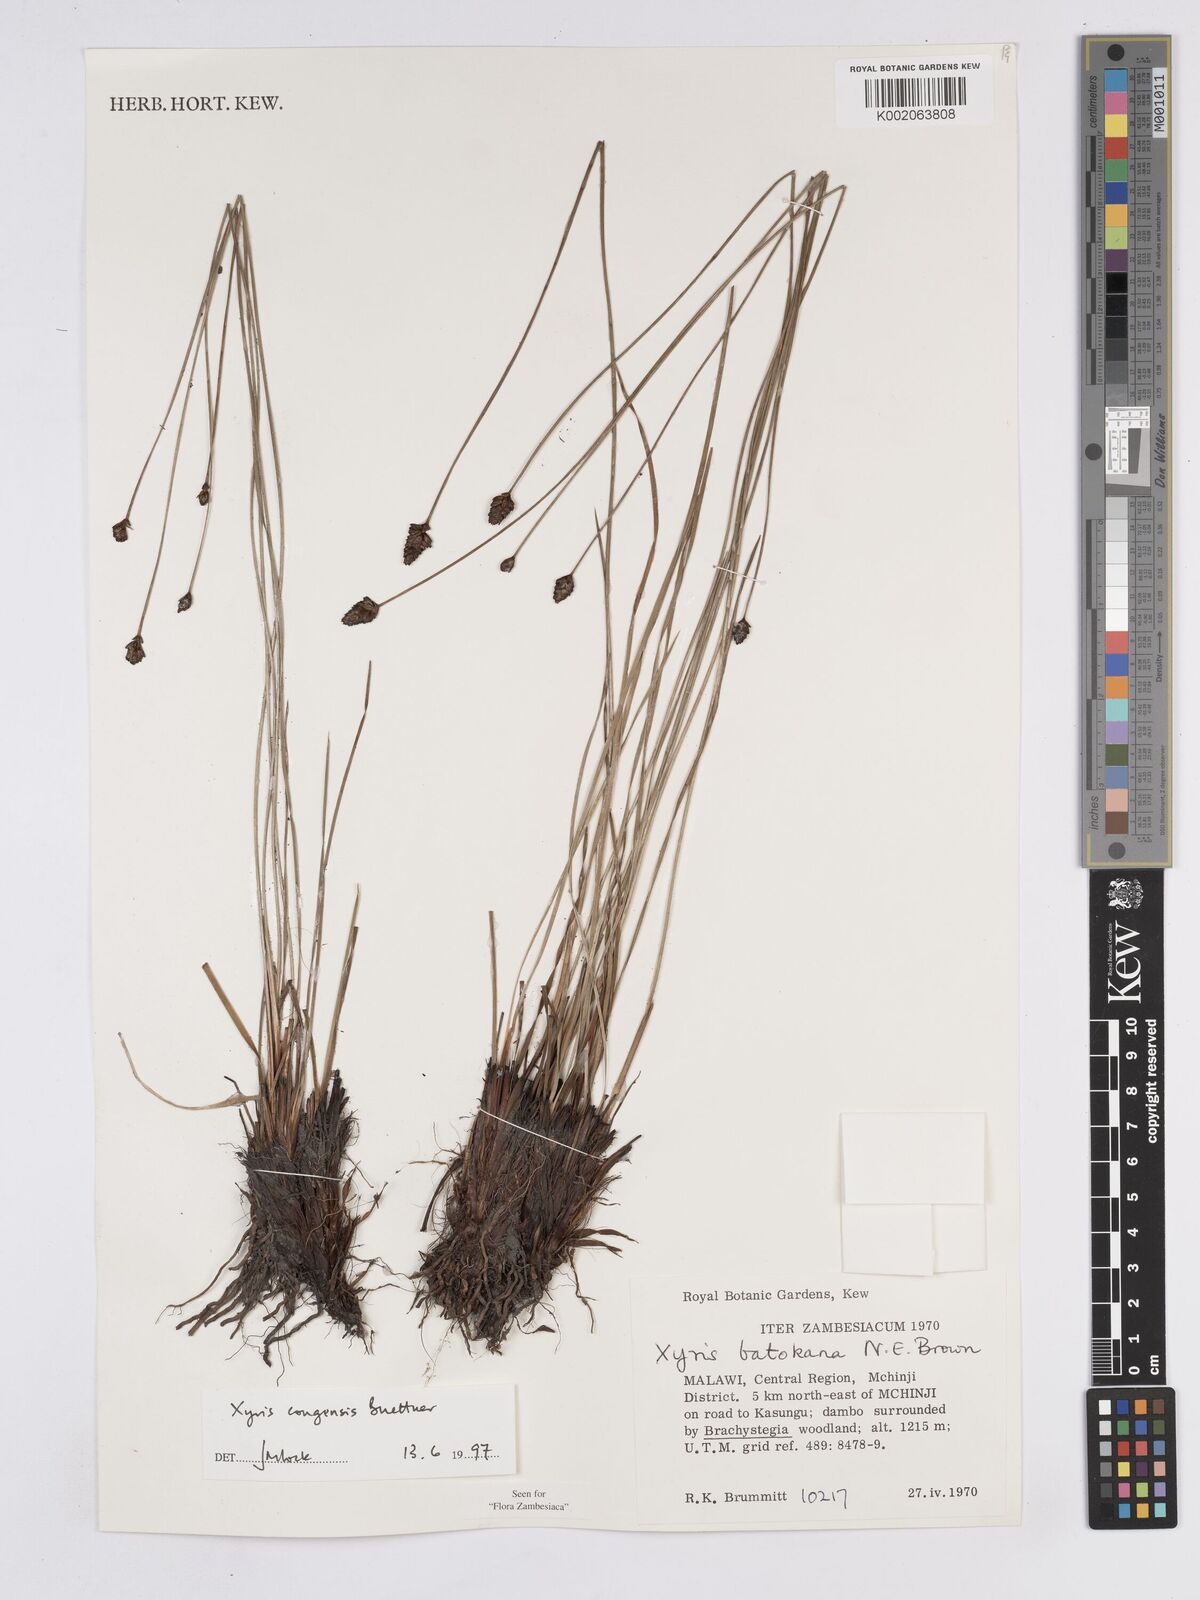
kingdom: Plantae
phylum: Tracheophyta
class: Liliopsida
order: Poales
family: Xyridaceae
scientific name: Xyridaceae
